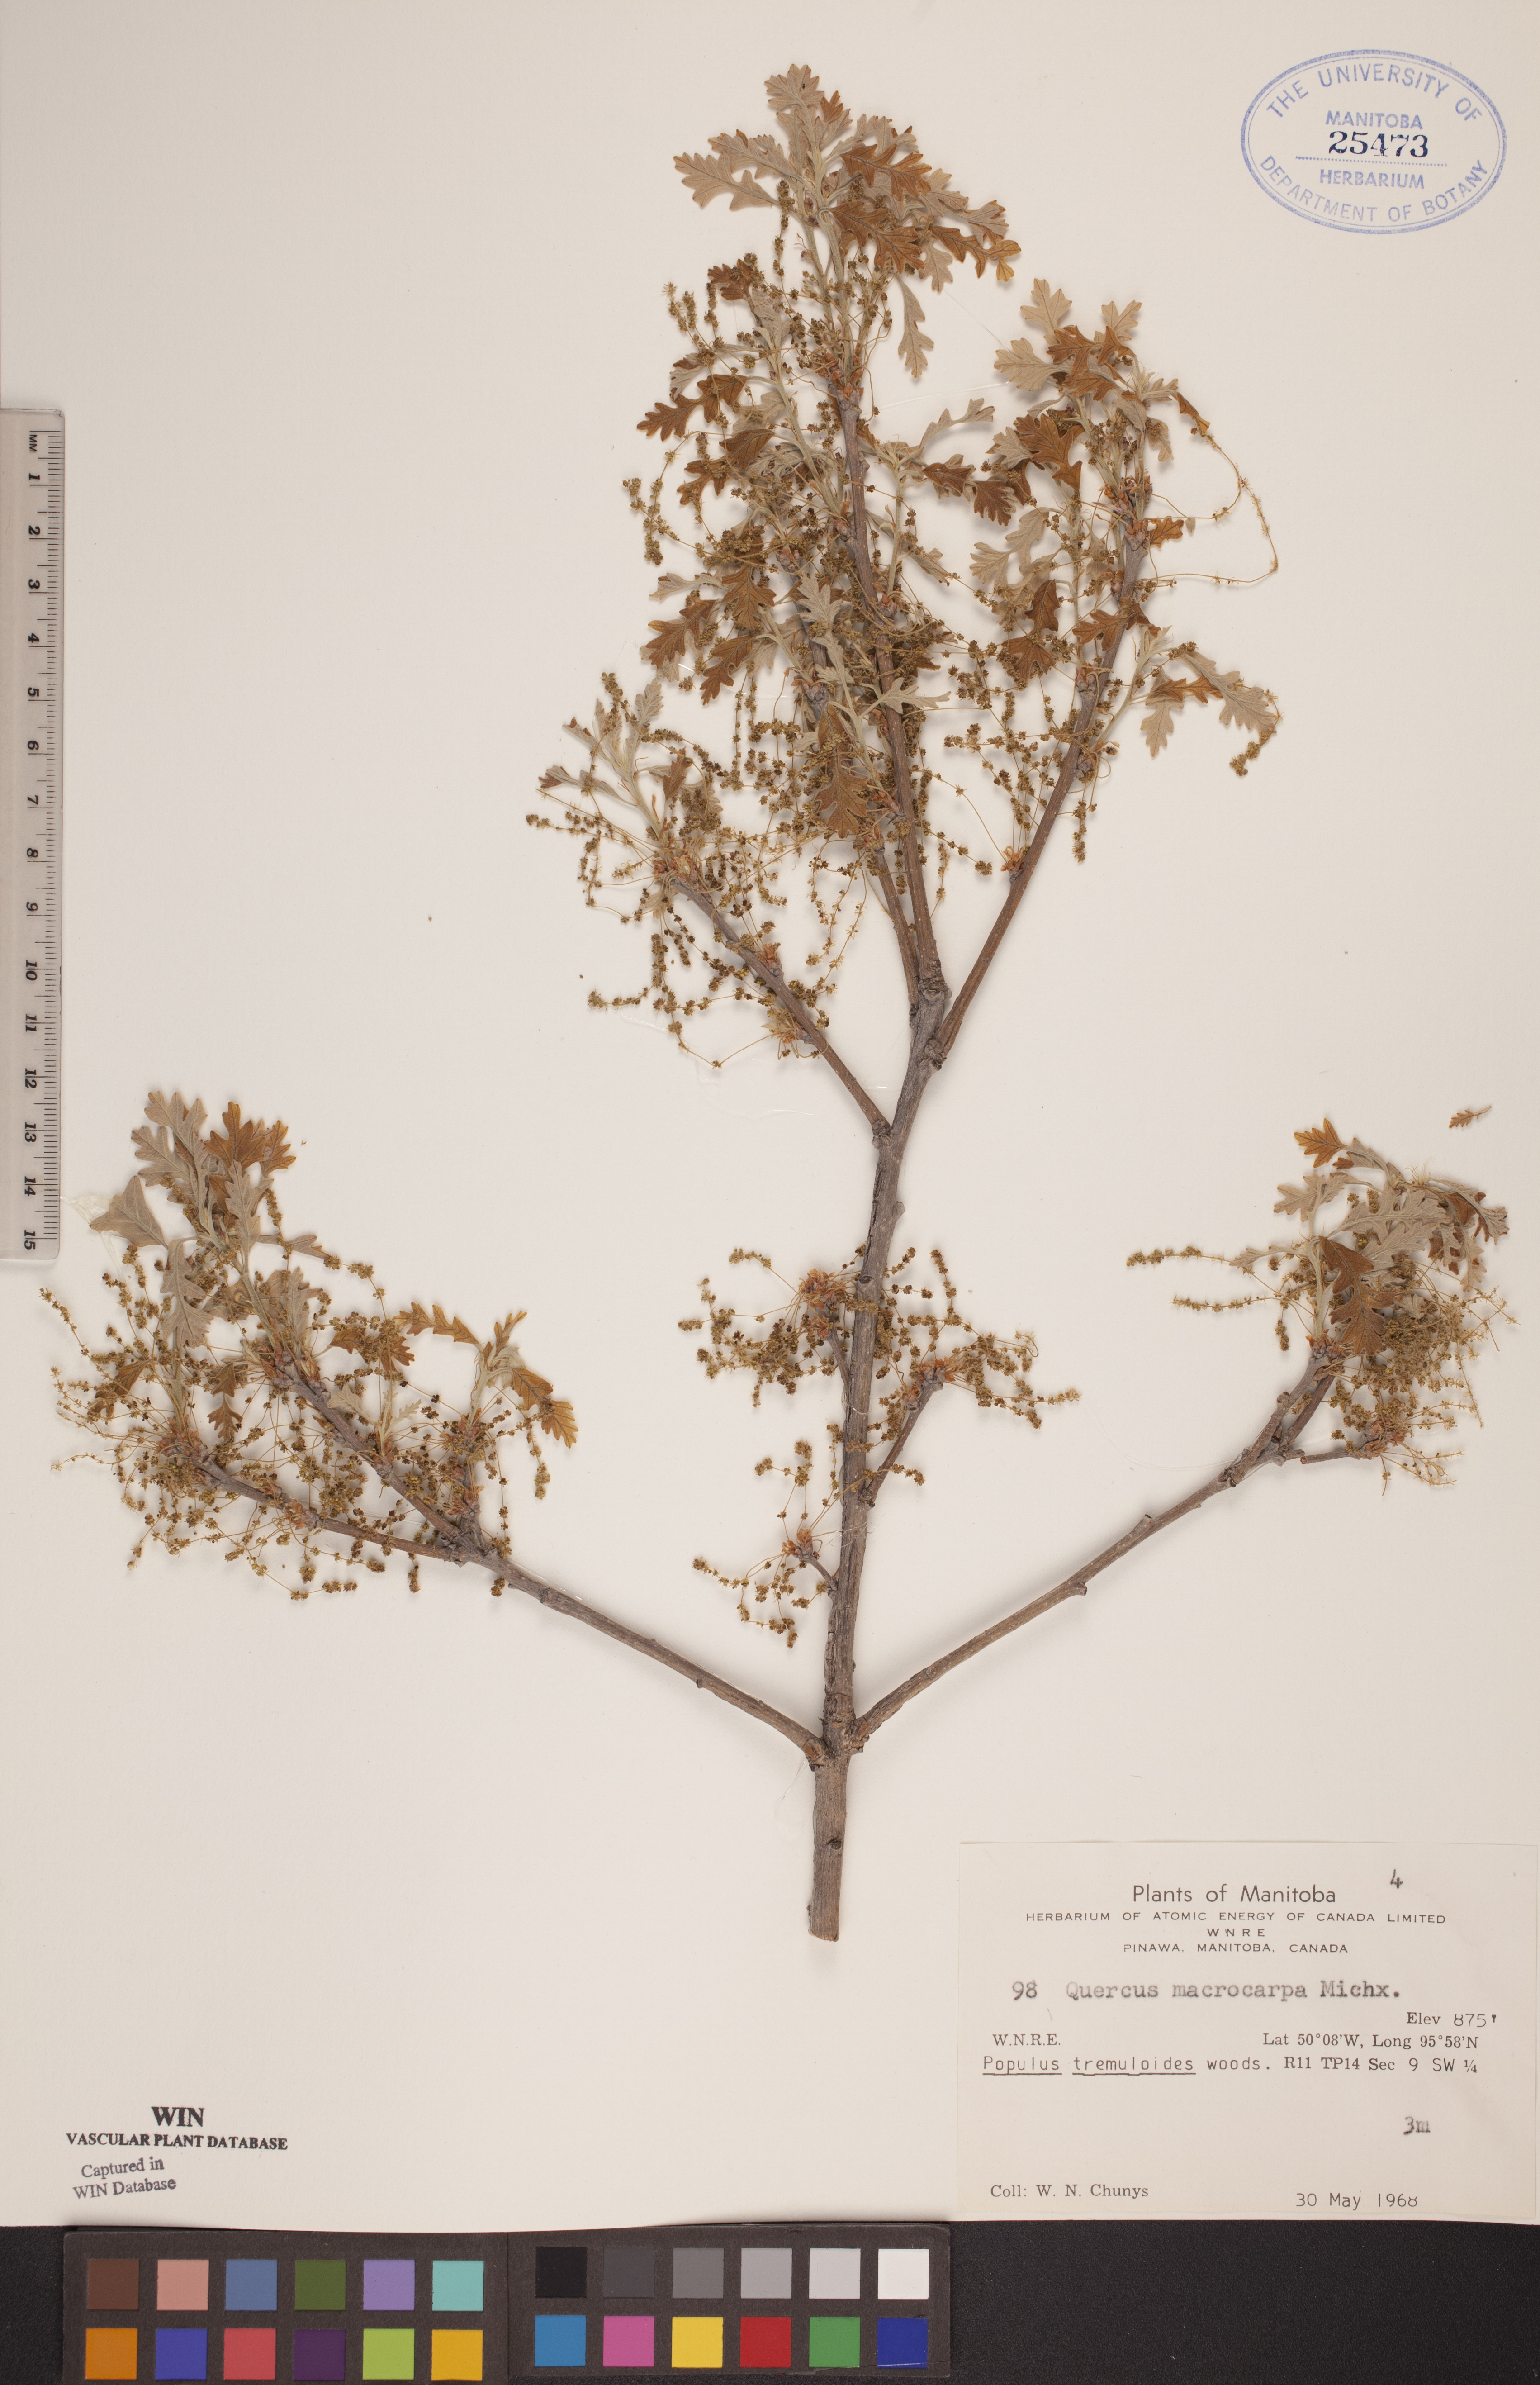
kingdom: Plantae
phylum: Tracheophyta
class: Magnoliopsida
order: Fagales
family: Fagaceae
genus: Quercus
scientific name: Quercus macrocarpa
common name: Bur oak
